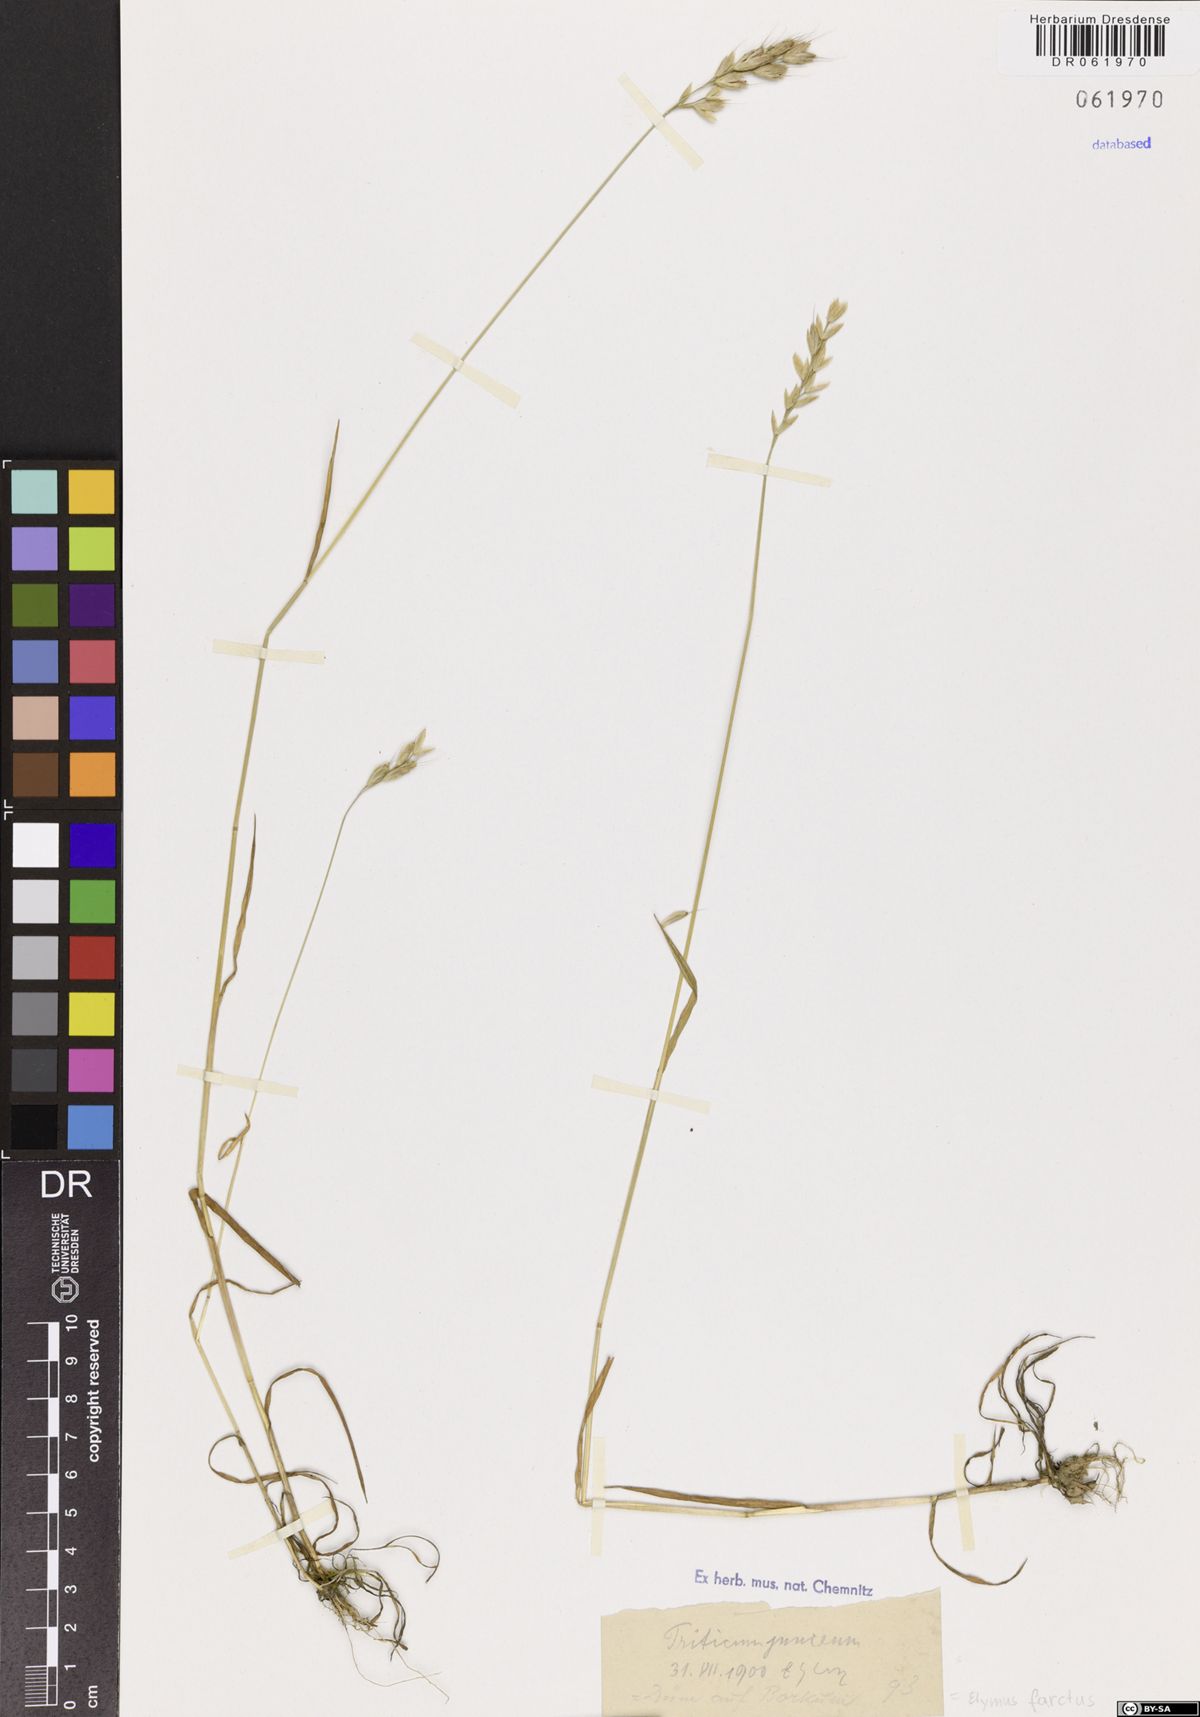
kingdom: Plantae
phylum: Tracheophyta
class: Liliopsida
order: Poales
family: Poaceae
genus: Thinopyrum
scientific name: Thinopyrum junceum
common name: Russian wheatgrass
